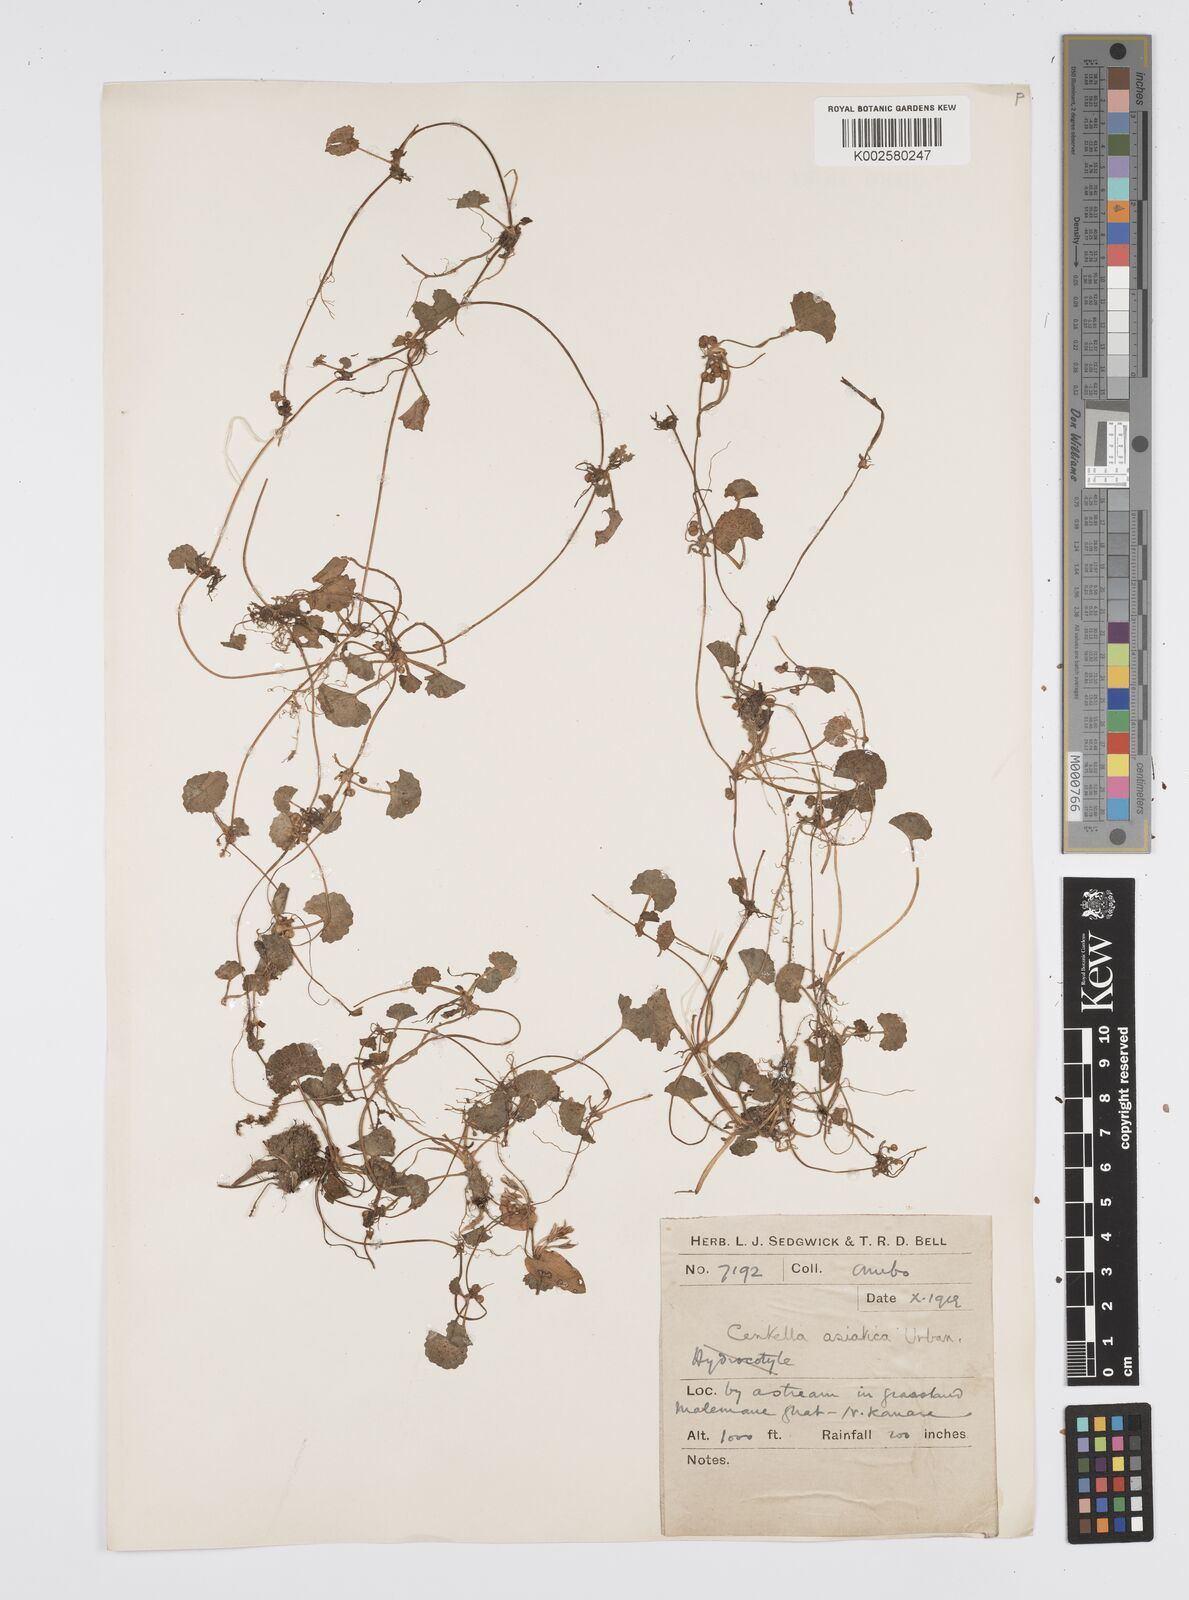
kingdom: Plantae
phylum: Tracheophyta
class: Magnoliopsida
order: Apiales
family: Apiaceae
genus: Centella
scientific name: Centella asiatica
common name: Spadeleaf
